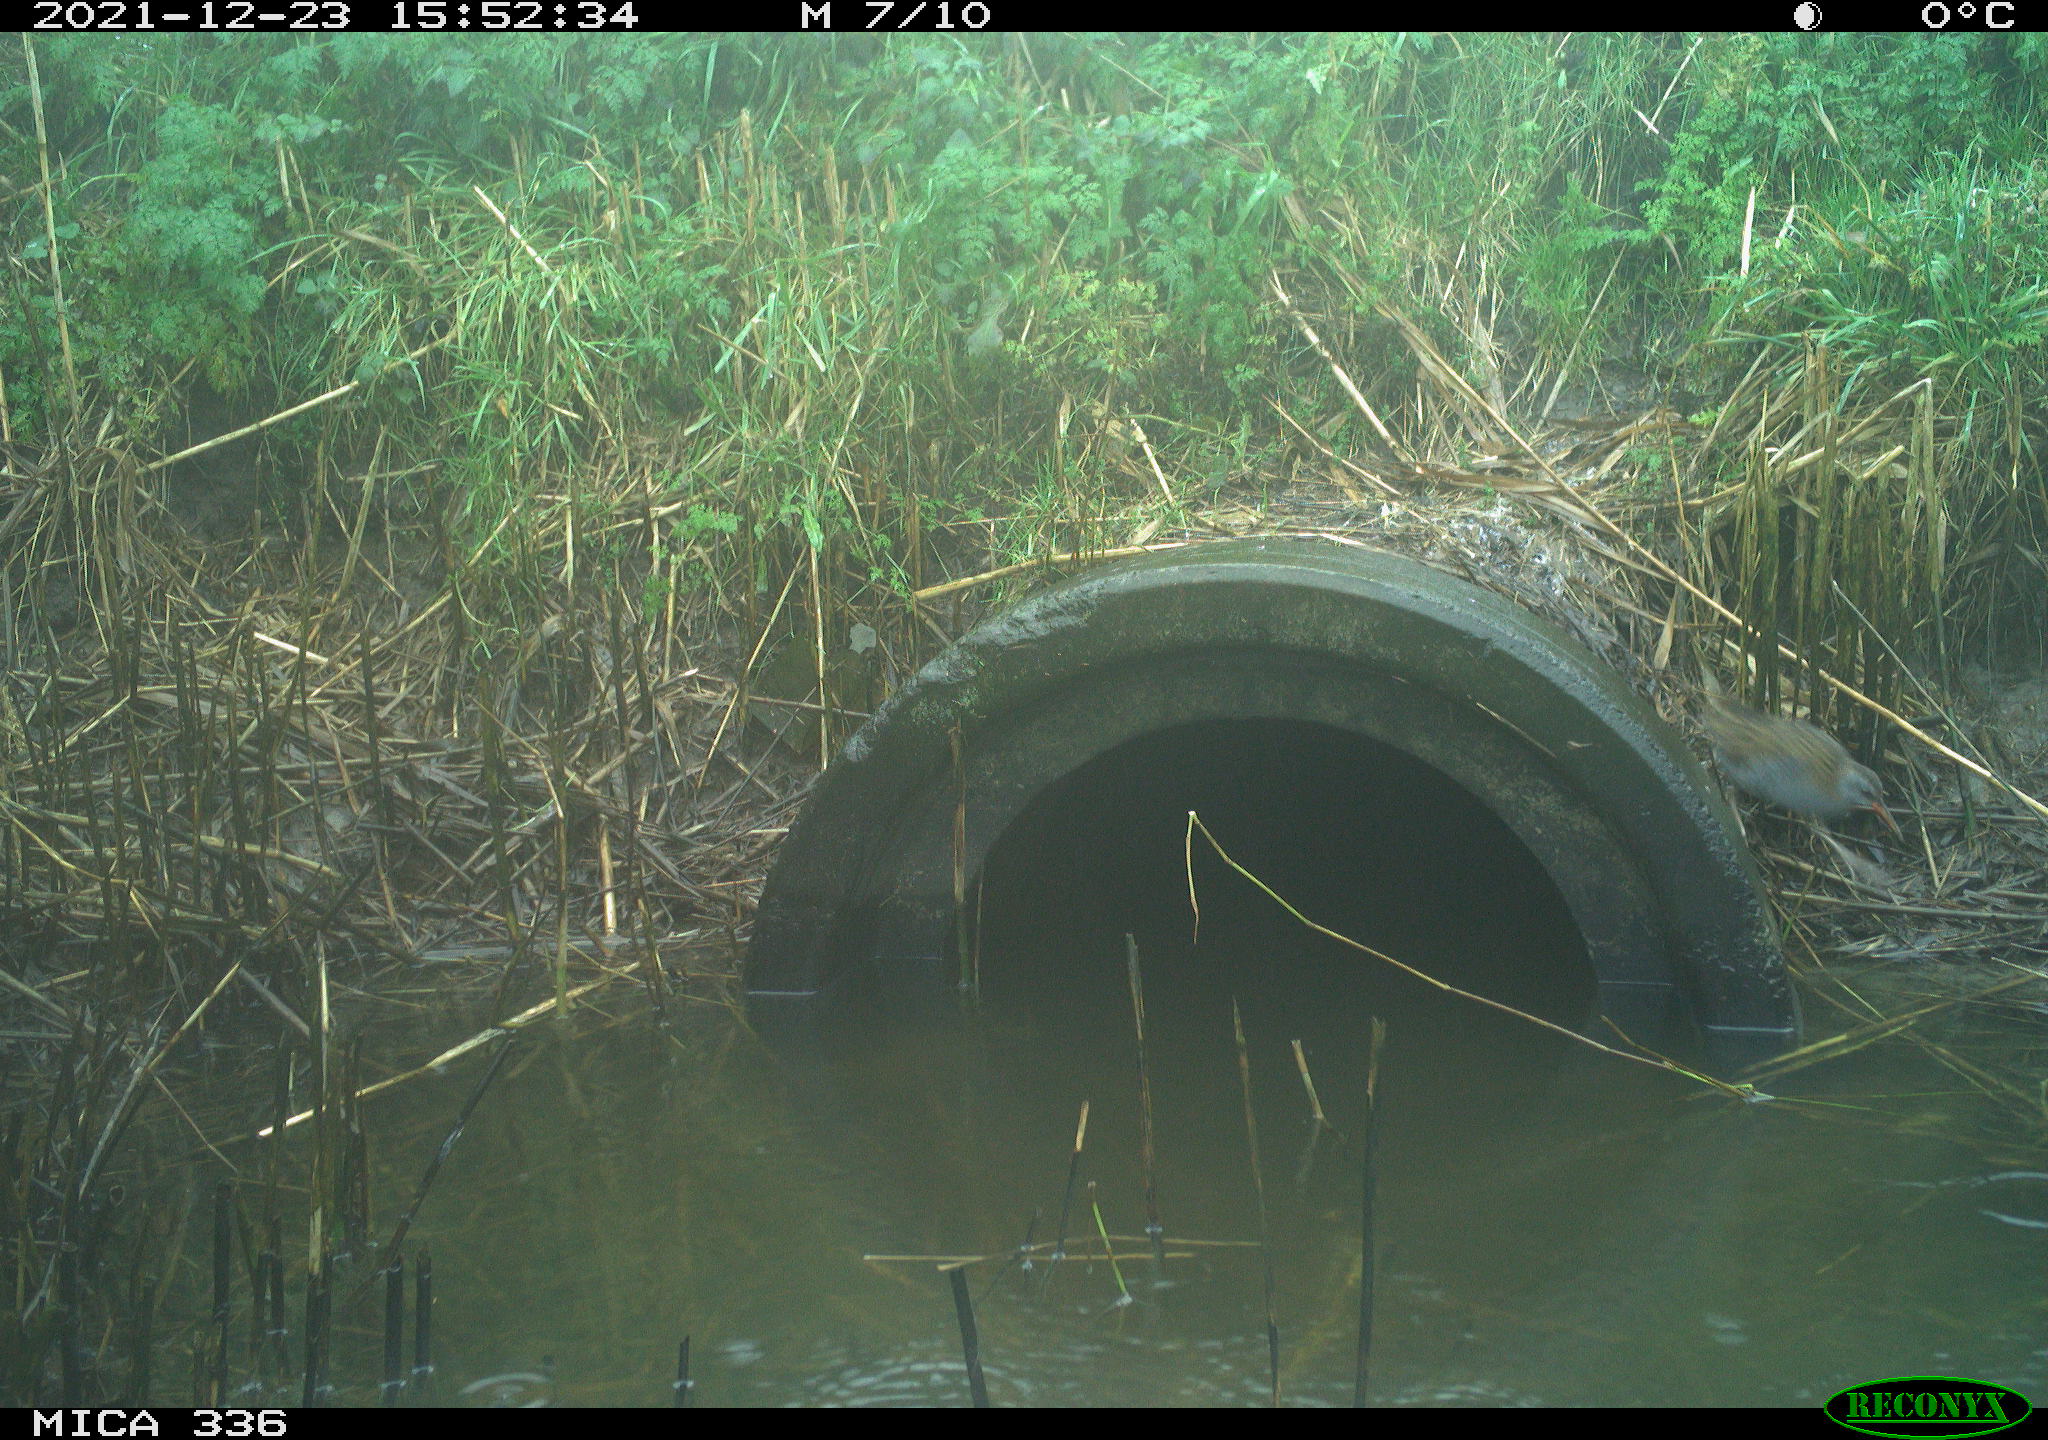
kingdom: Animalia
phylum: Chordata
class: Aves
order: Gruiformes
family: Rallidae
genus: Gallinula
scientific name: Gallinula chloropus
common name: Common moorhen
